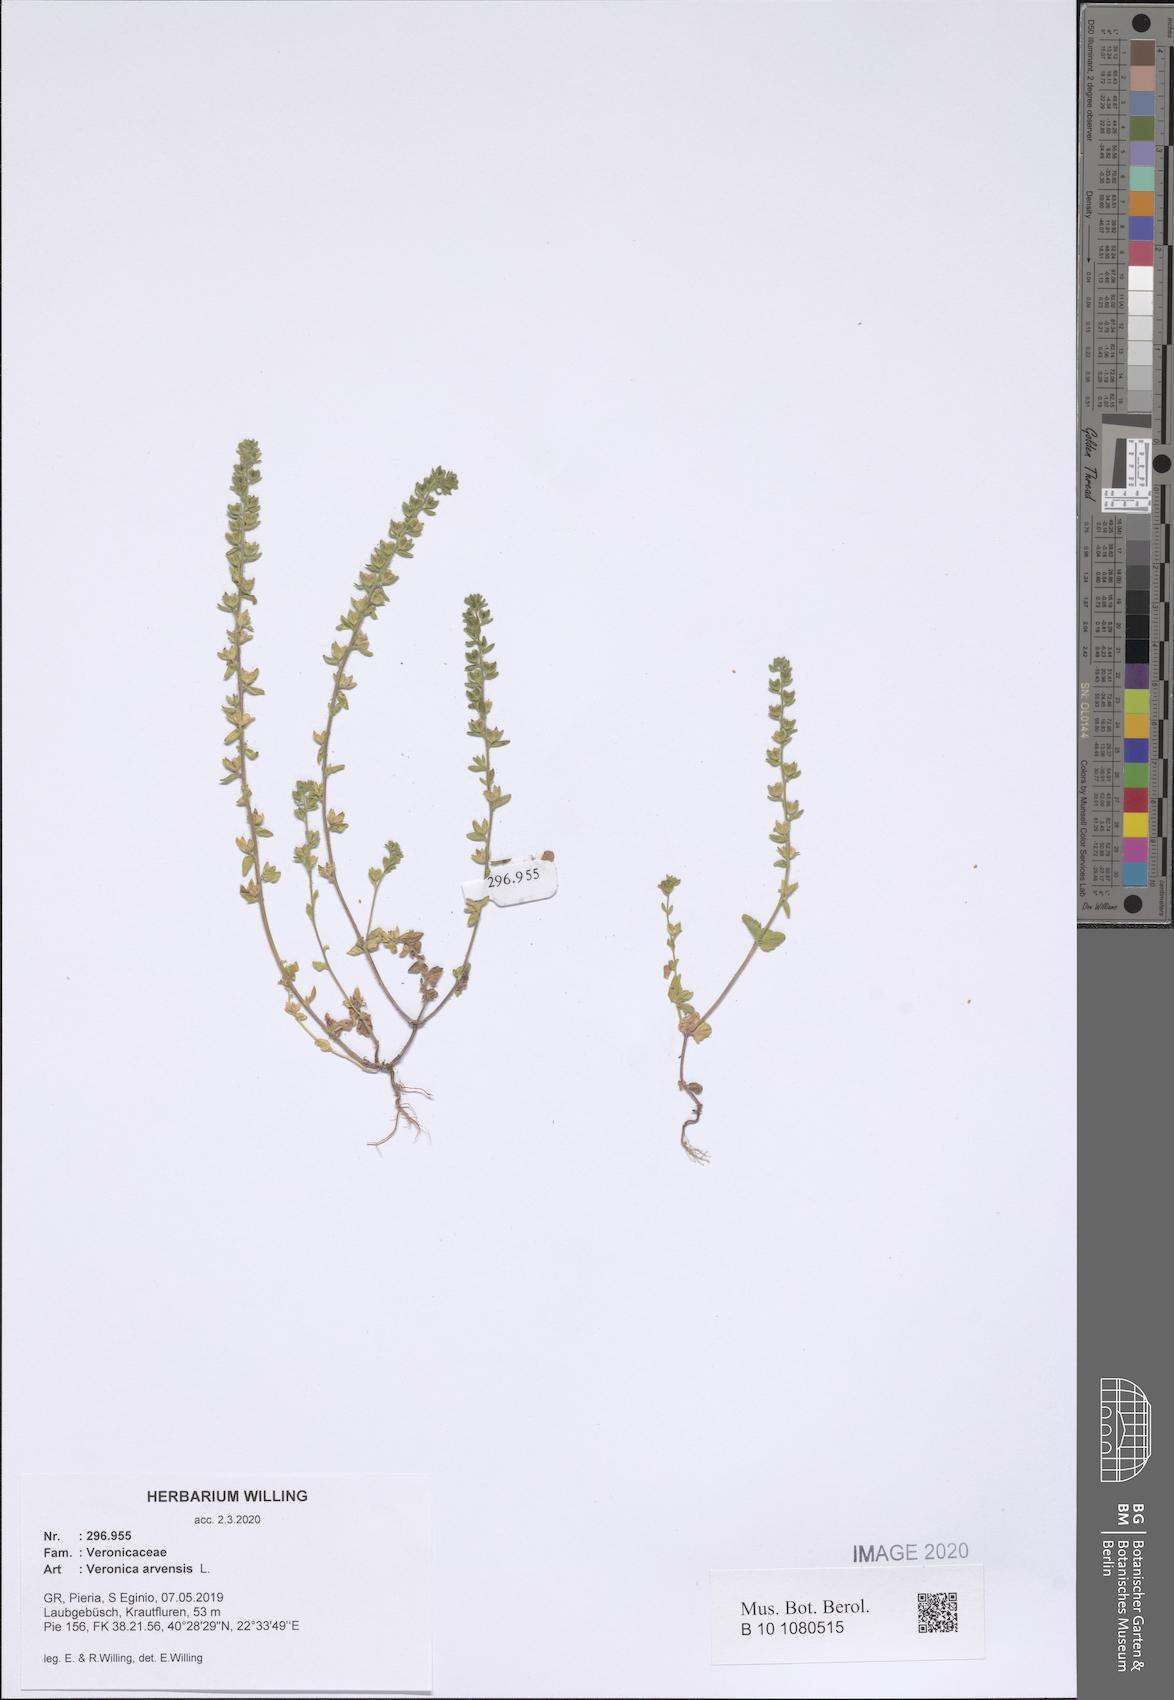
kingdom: Plantae
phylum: Tracheophyta
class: Magnoliopsida
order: Lamiales
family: Plantaginaceae
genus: Veronica
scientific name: Veronica arvensis
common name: Corn speedwell
